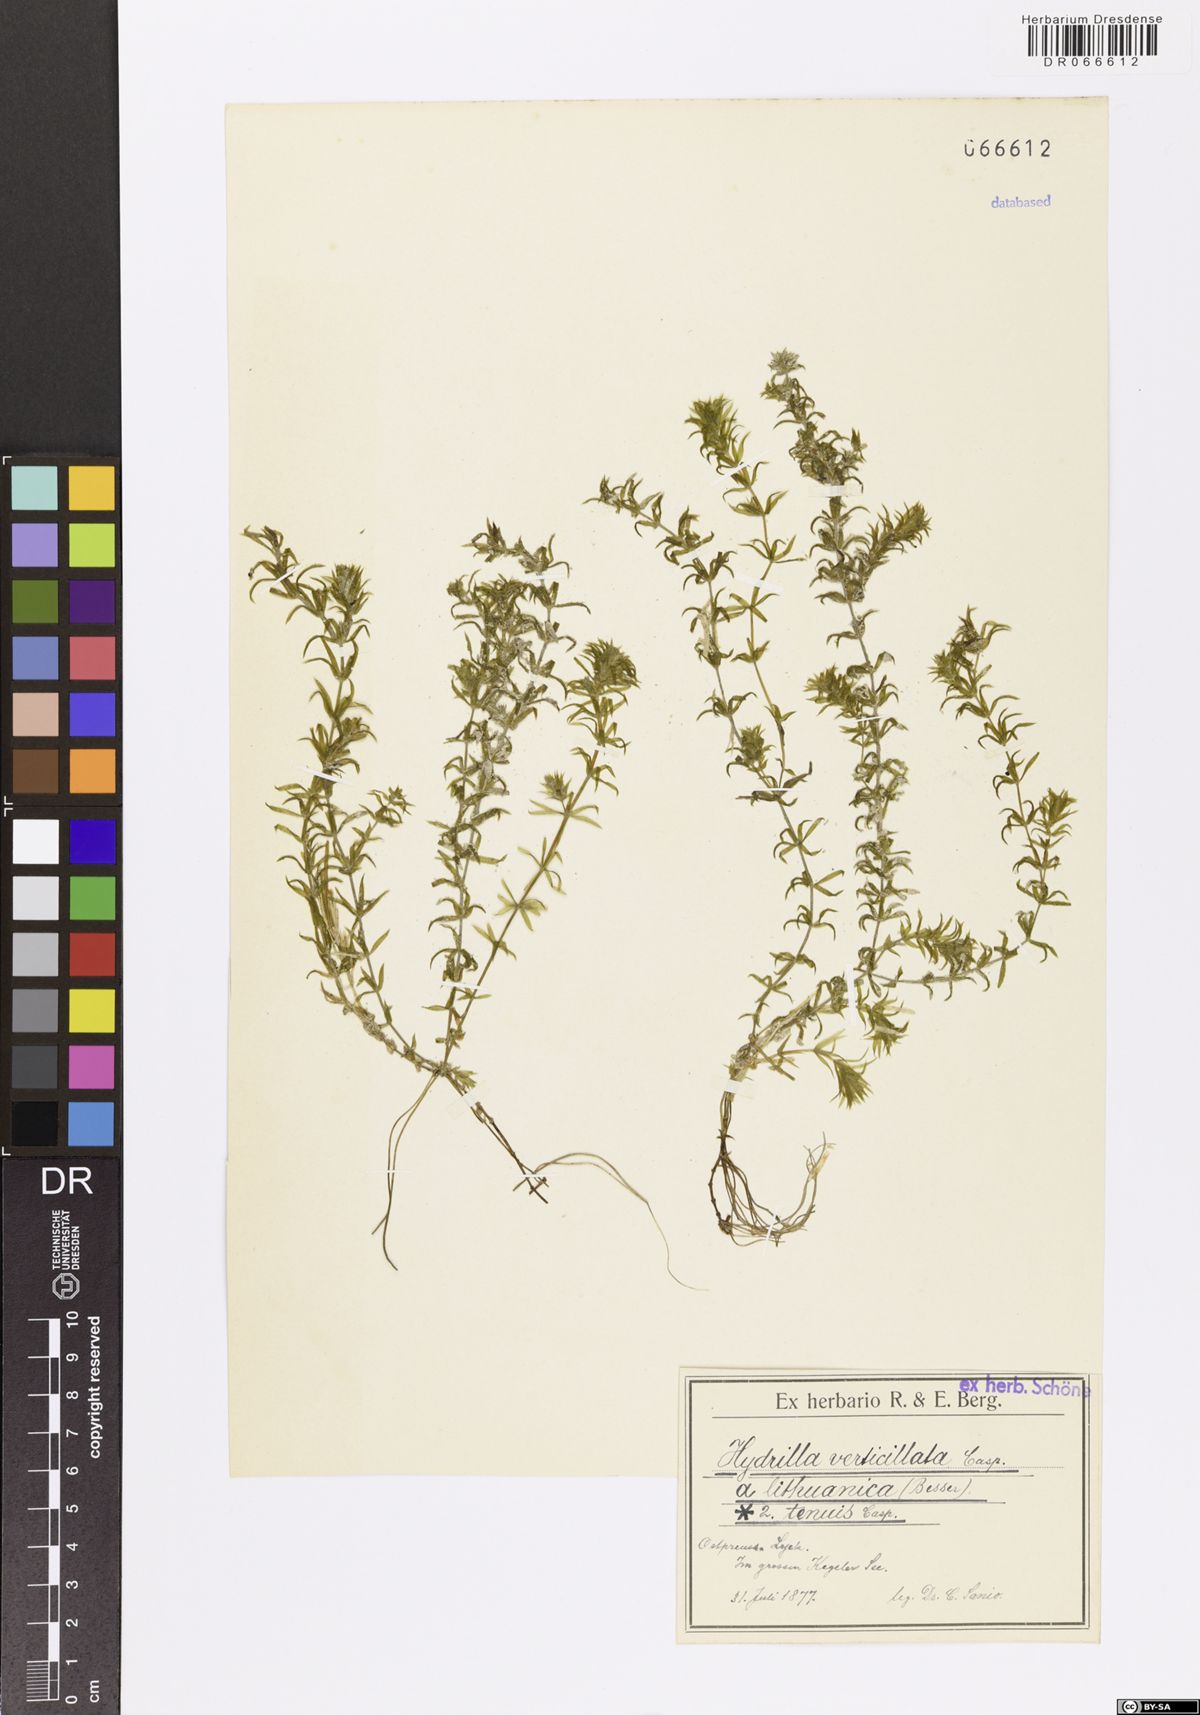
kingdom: Plantae
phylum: Tracheophyta
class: Liliopsida
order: Alismatales
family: Hydrocharitaceae
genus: Hydrilla
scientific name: Hydrilla verticillata
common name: Florida-elodea
